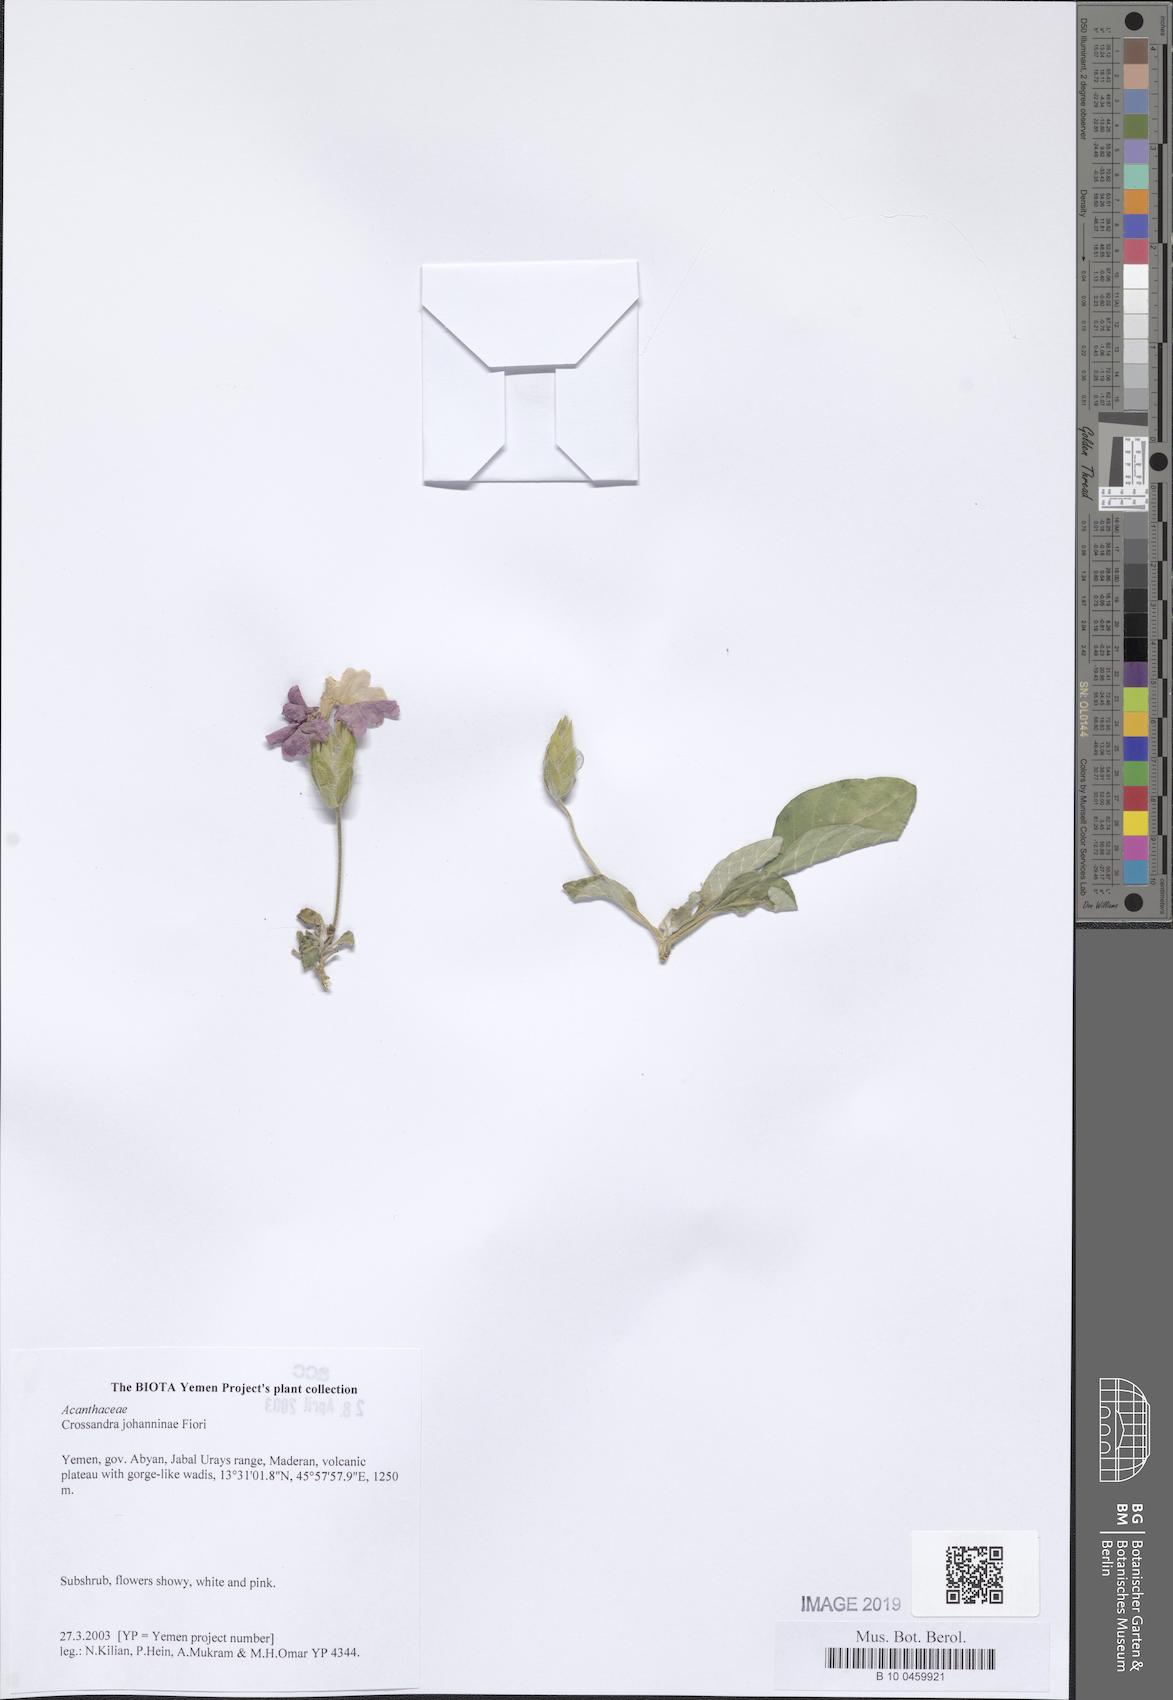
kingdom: Plantae
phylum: Tracheophyta
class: Magnoliopsida
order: Lamiales
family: Acanthaceae
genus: Crossandra
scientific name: Crossandra johanninae
